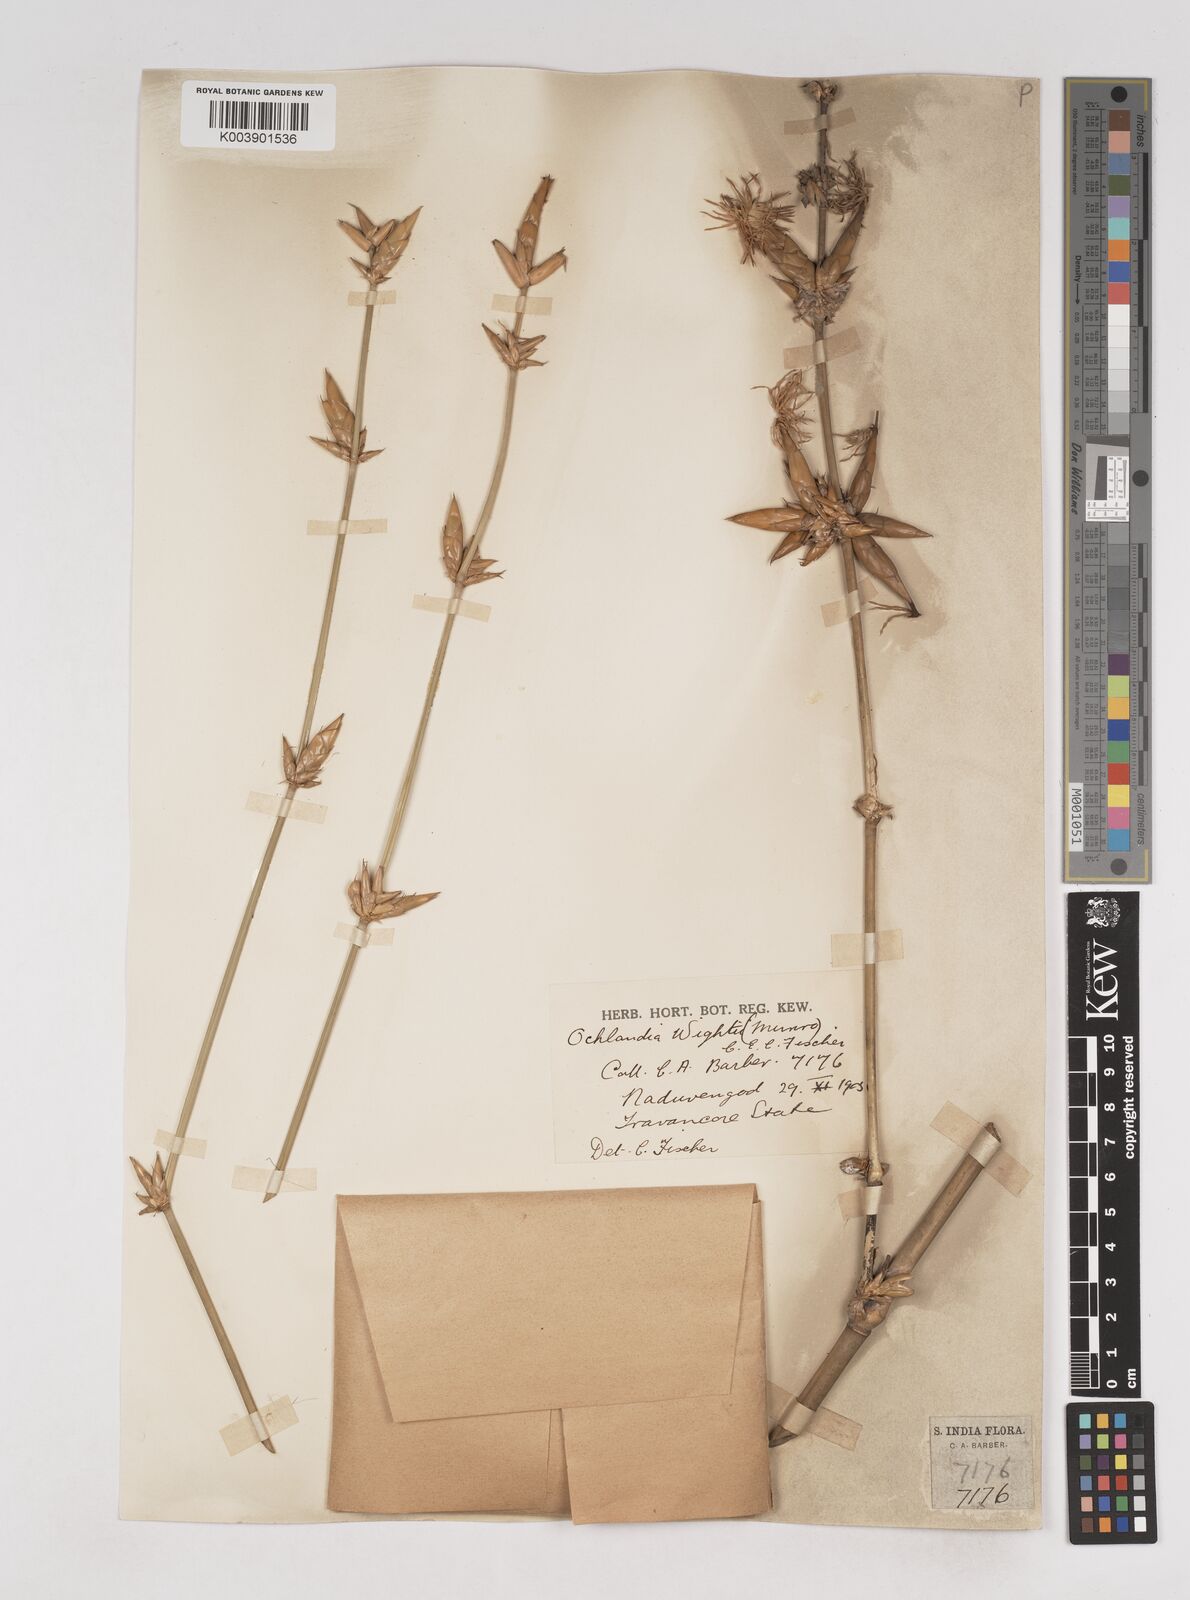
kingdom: Plantae
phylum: Tracheophyta
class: Liliopsida
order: Poales
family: Poaceae
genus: Ochlandra
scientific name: Ochlandra wightii
